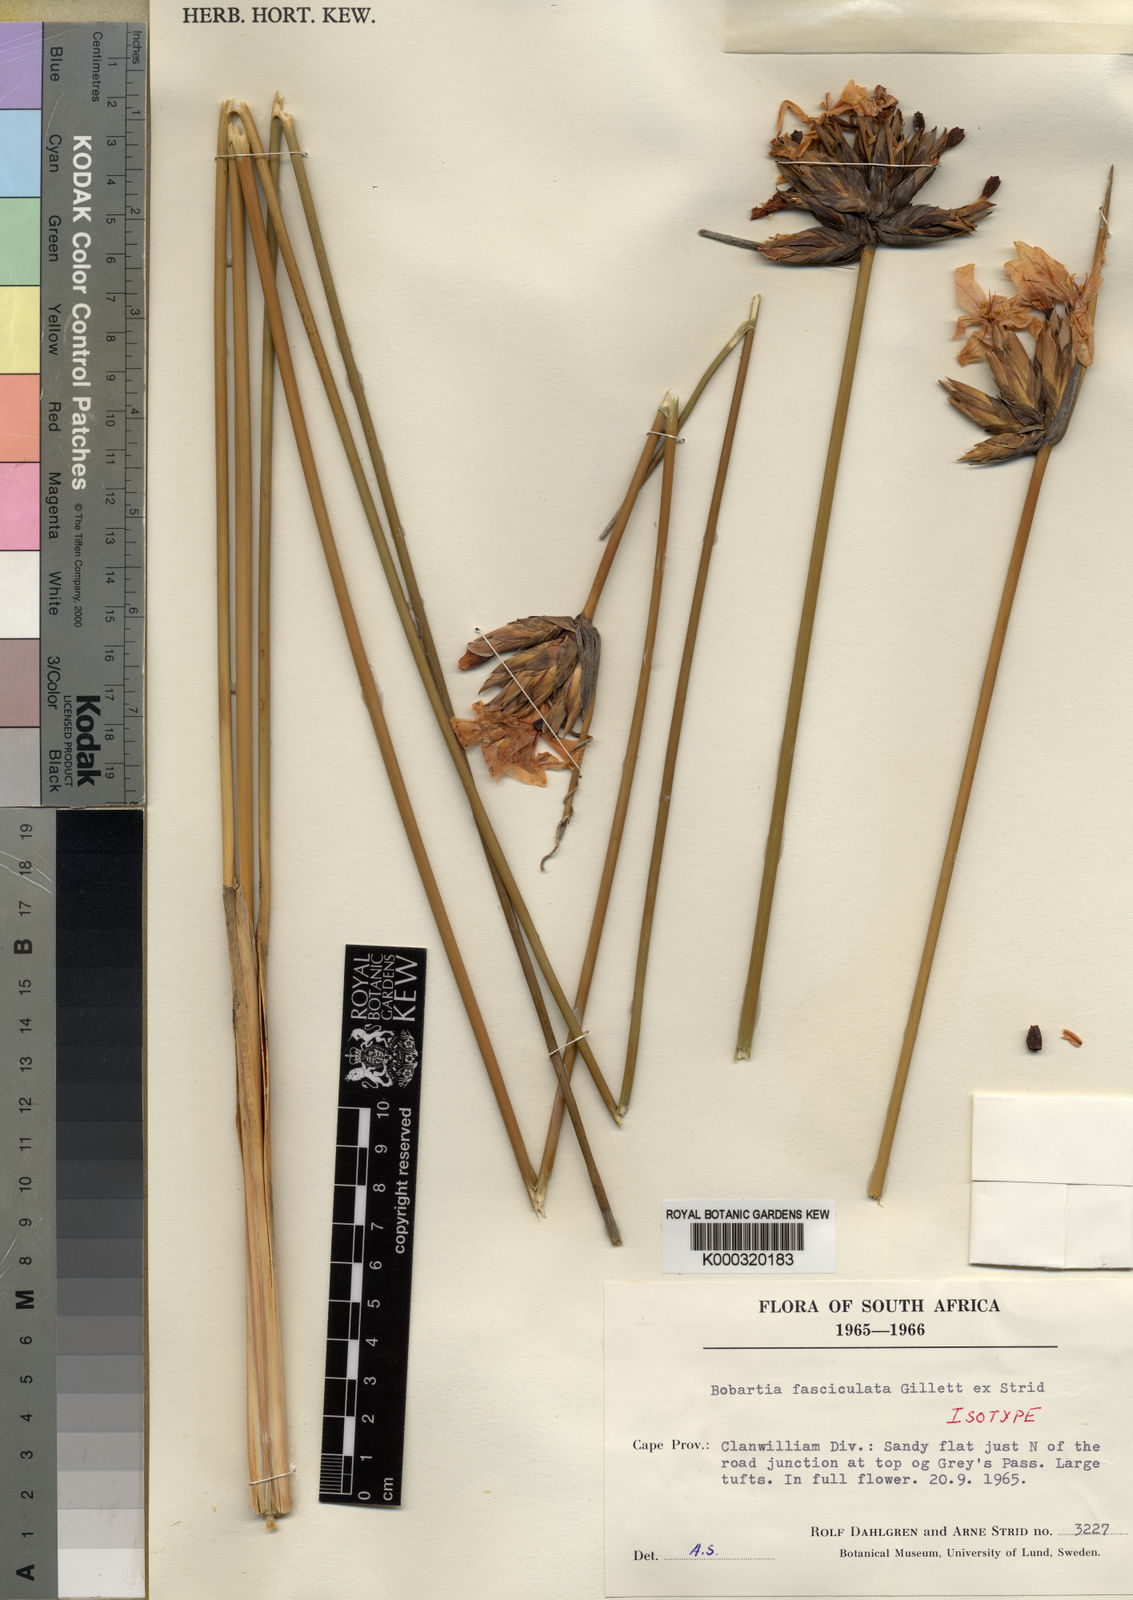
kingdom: Plantae
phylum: Tracheophyta
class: Liliopsida
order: Asparagales
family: Iridaceae
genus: Bobartia
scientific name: Bobartia fasciculata
